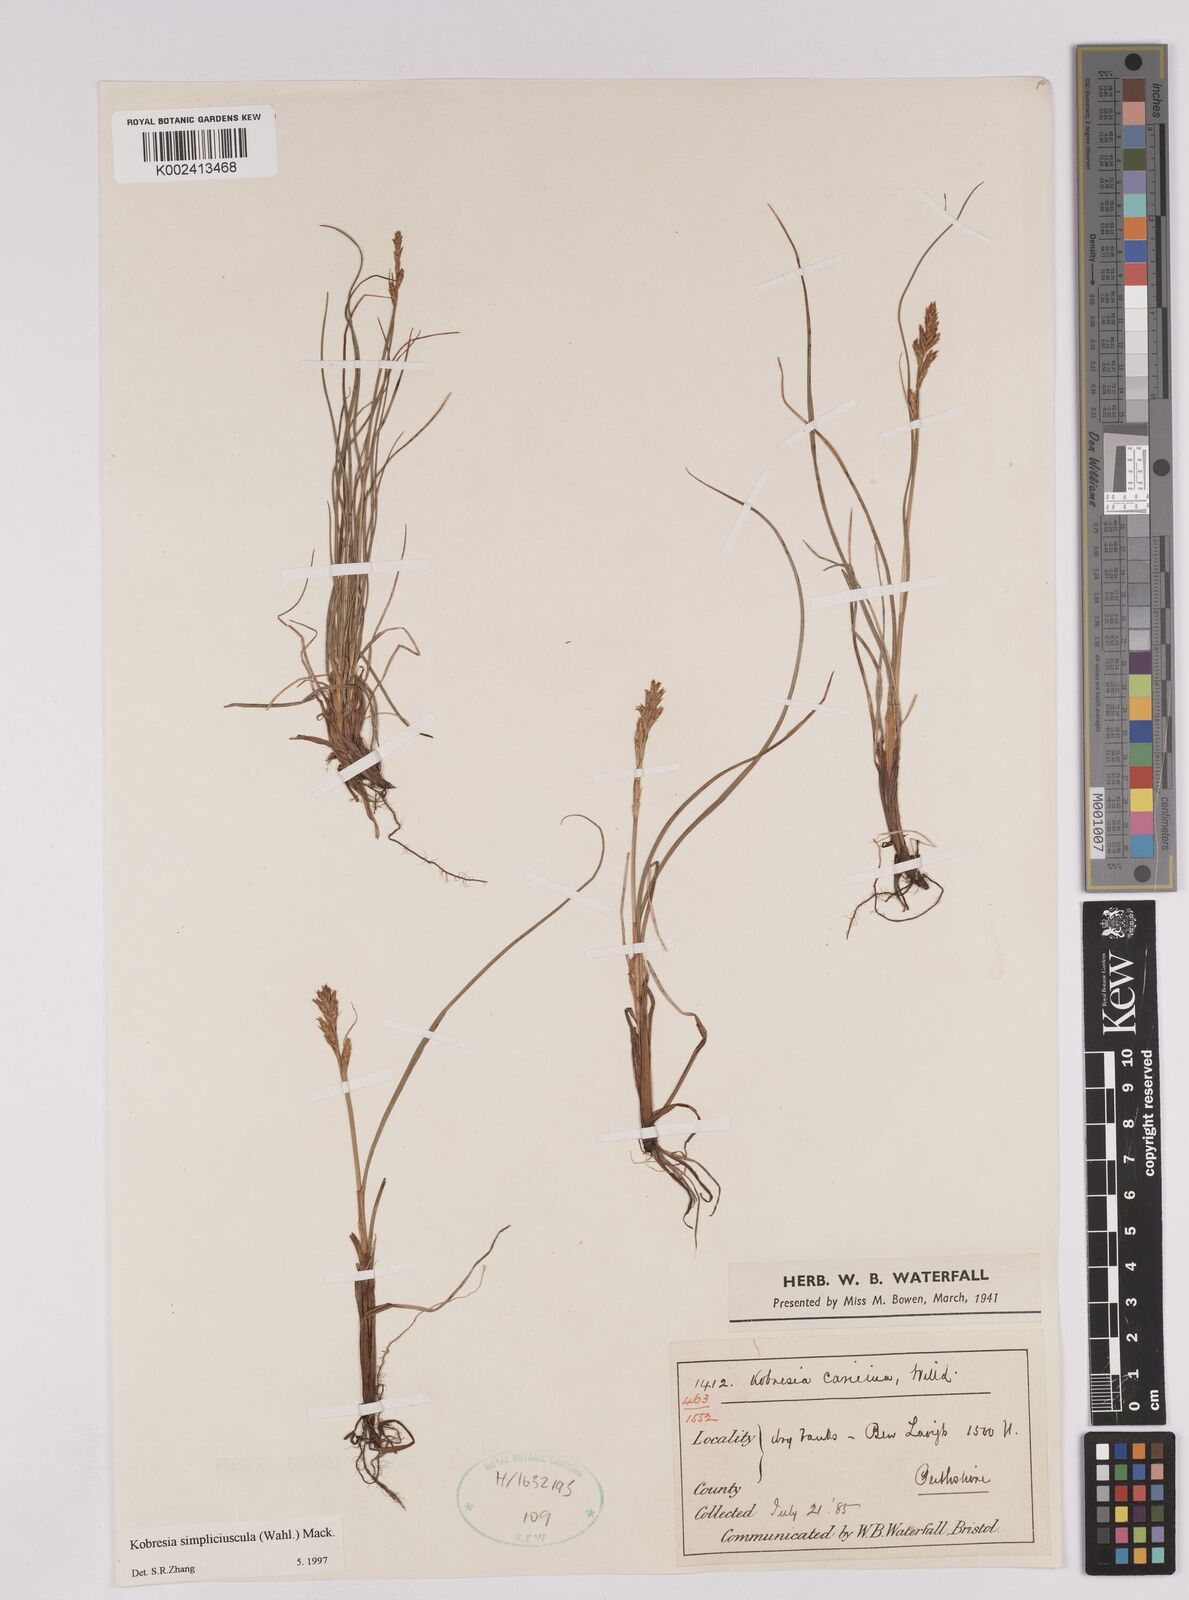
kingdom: Plantae
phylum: Tracheophyta
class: Liliopsida
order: Poales
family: Cyperaceae
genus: Carex
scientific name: Carex simpliciuscula
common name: Simple bog sedge
